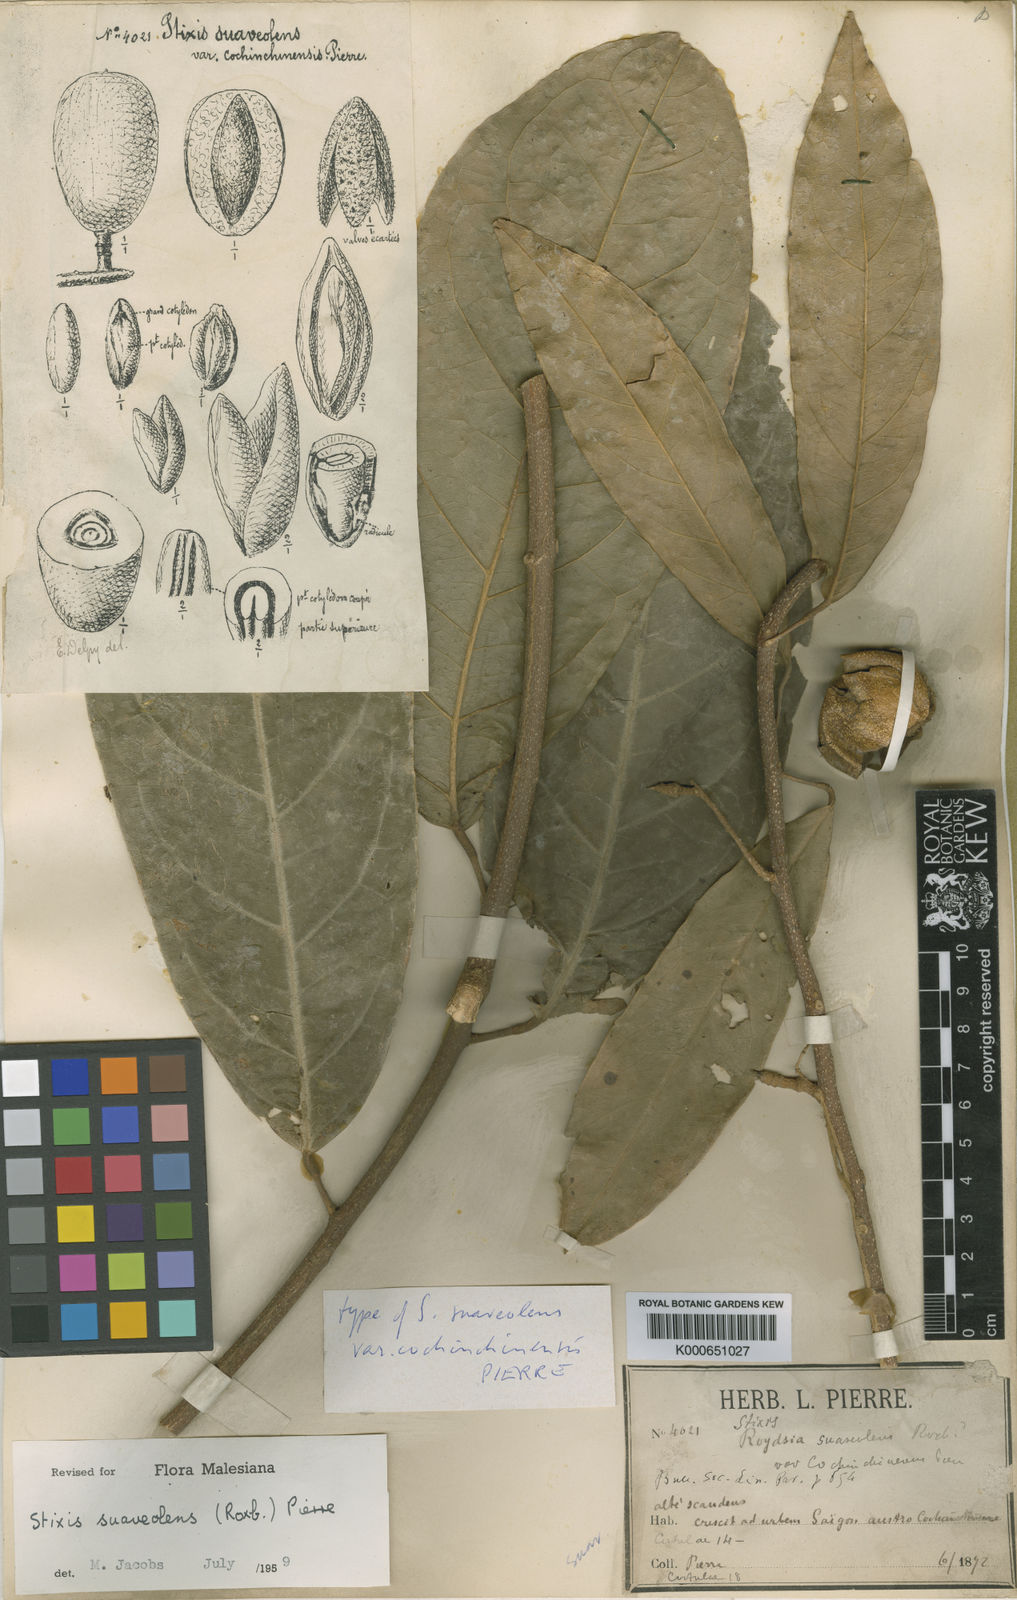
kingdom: Plantae
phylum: Tracheophyta
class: Magnoliopsida
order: Brassicales
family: Stixaceae
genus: Stixis
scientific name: Stixis
